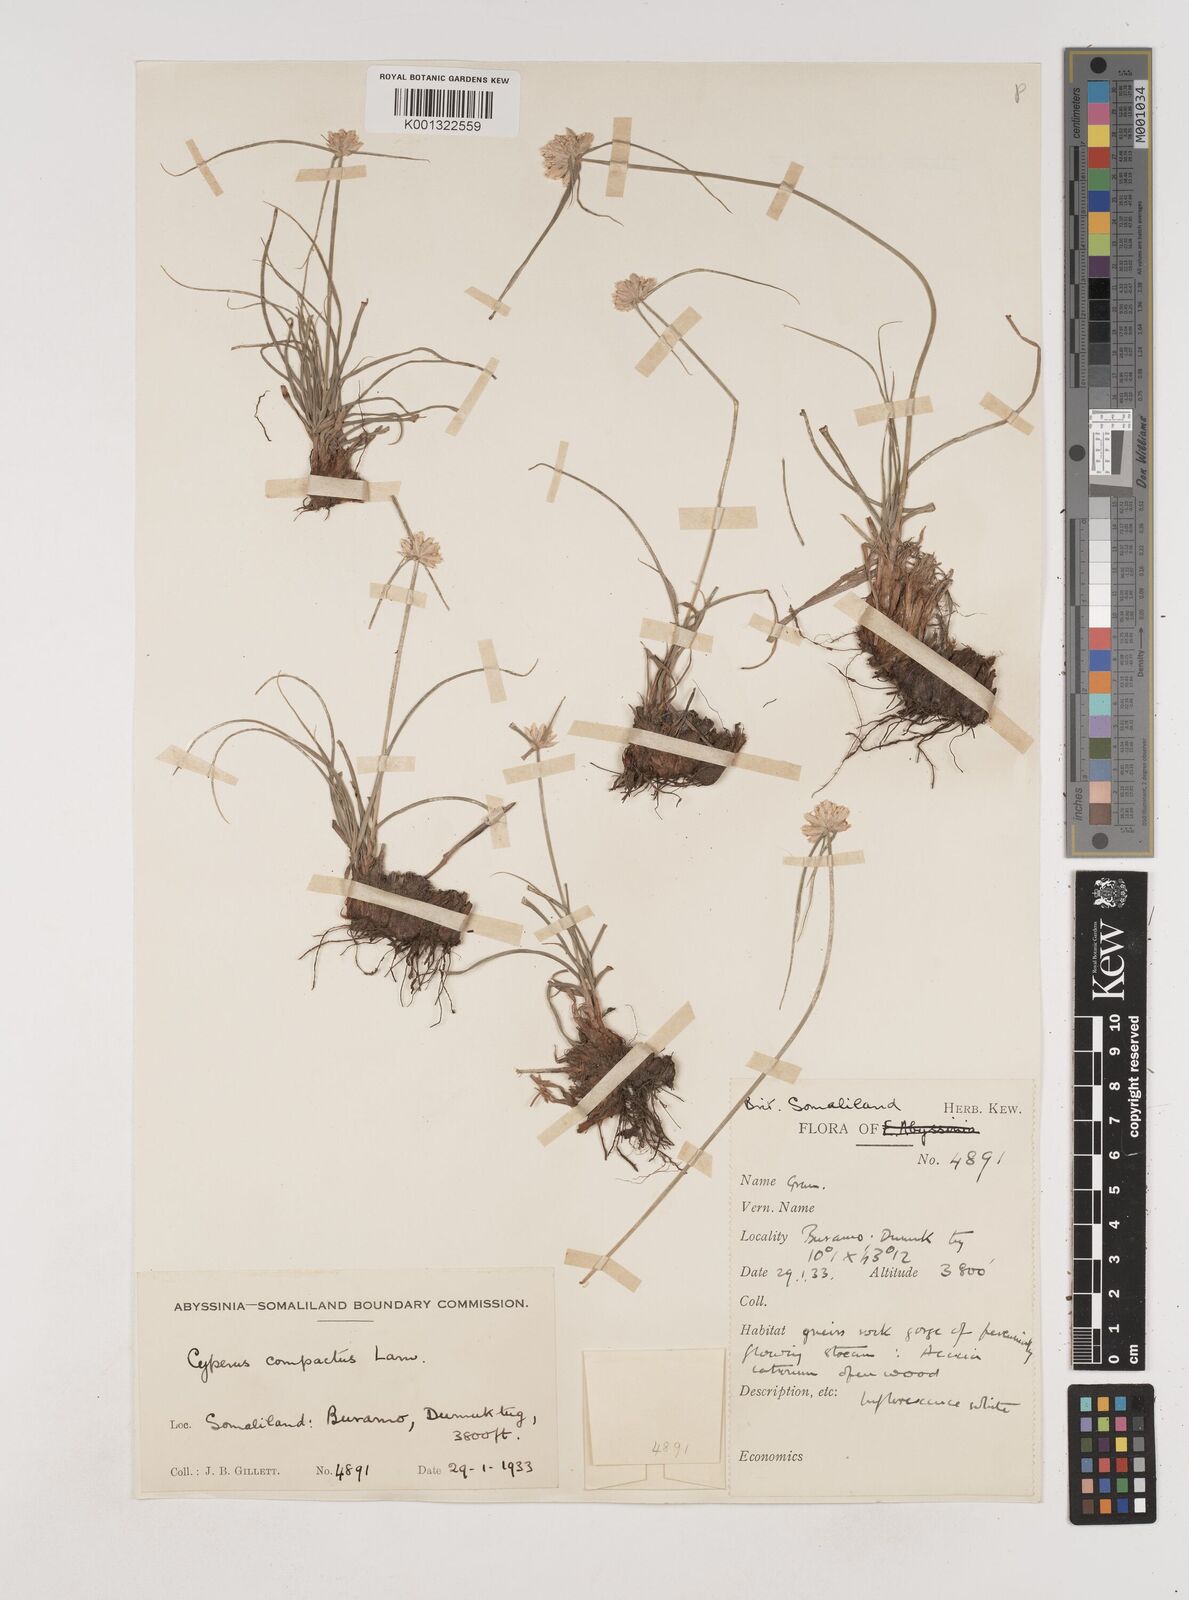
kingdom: Plantae
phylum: Tracheophyta
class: Liliopsida
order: Poales
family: Cyperaceae
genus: Cyperus
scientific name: Cyperus niveus
